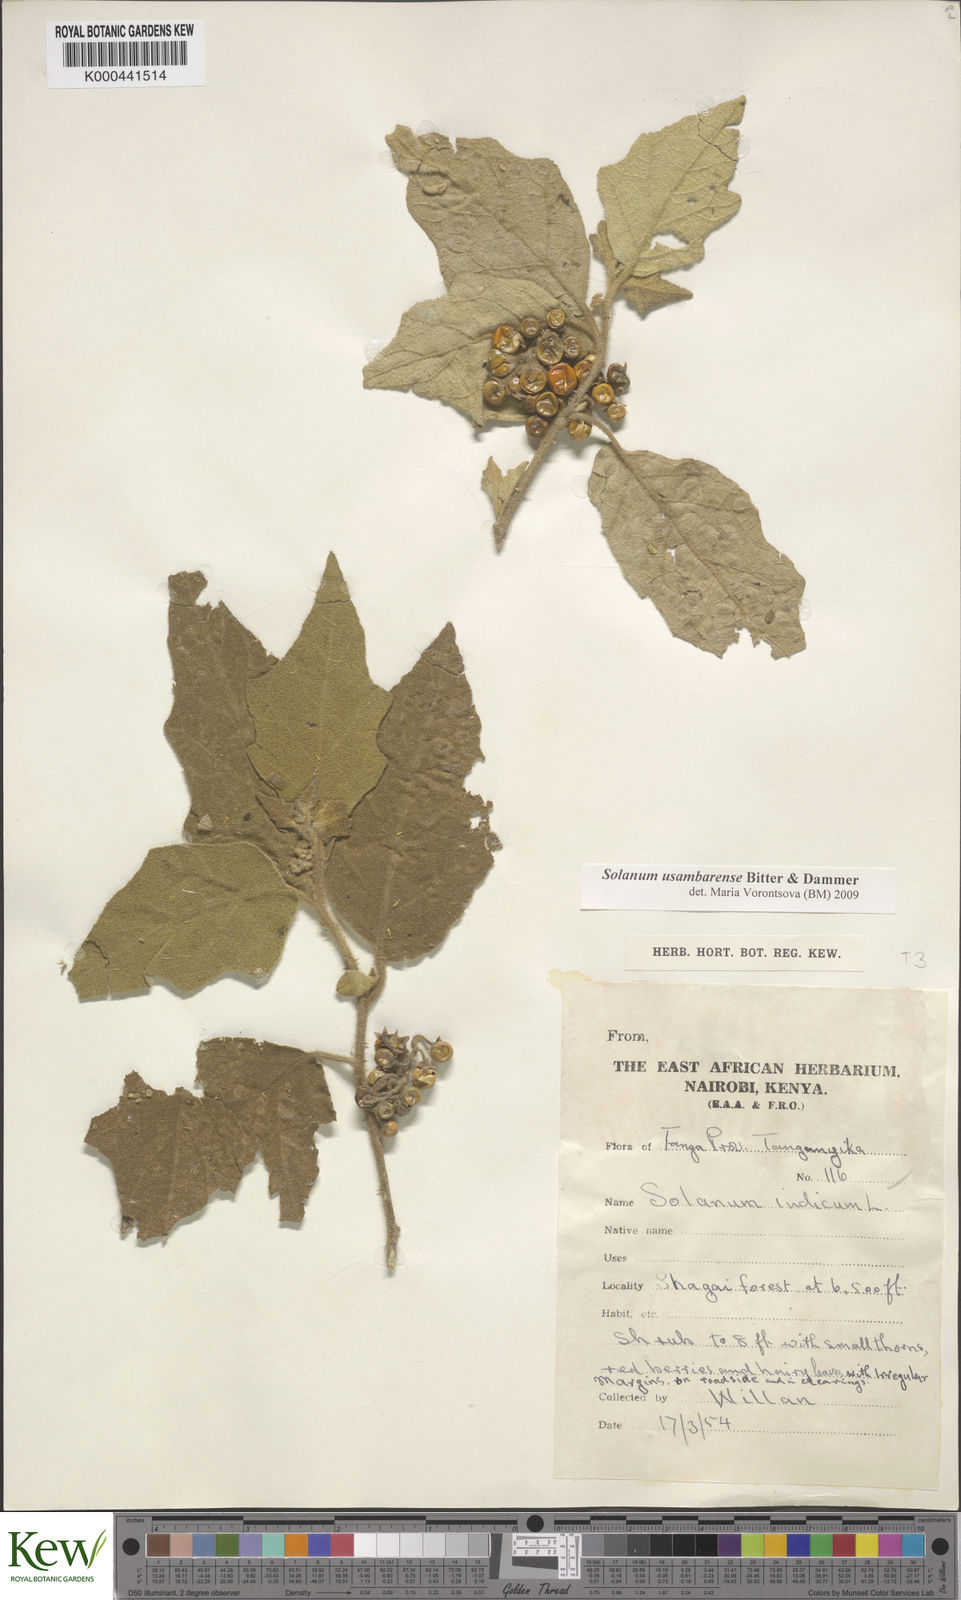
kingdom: Plantae
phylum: Tracheophyta
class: Magnoliopsida
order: Solanales
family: Solanaceae
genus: Solanum
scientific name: Solanum usambarense
